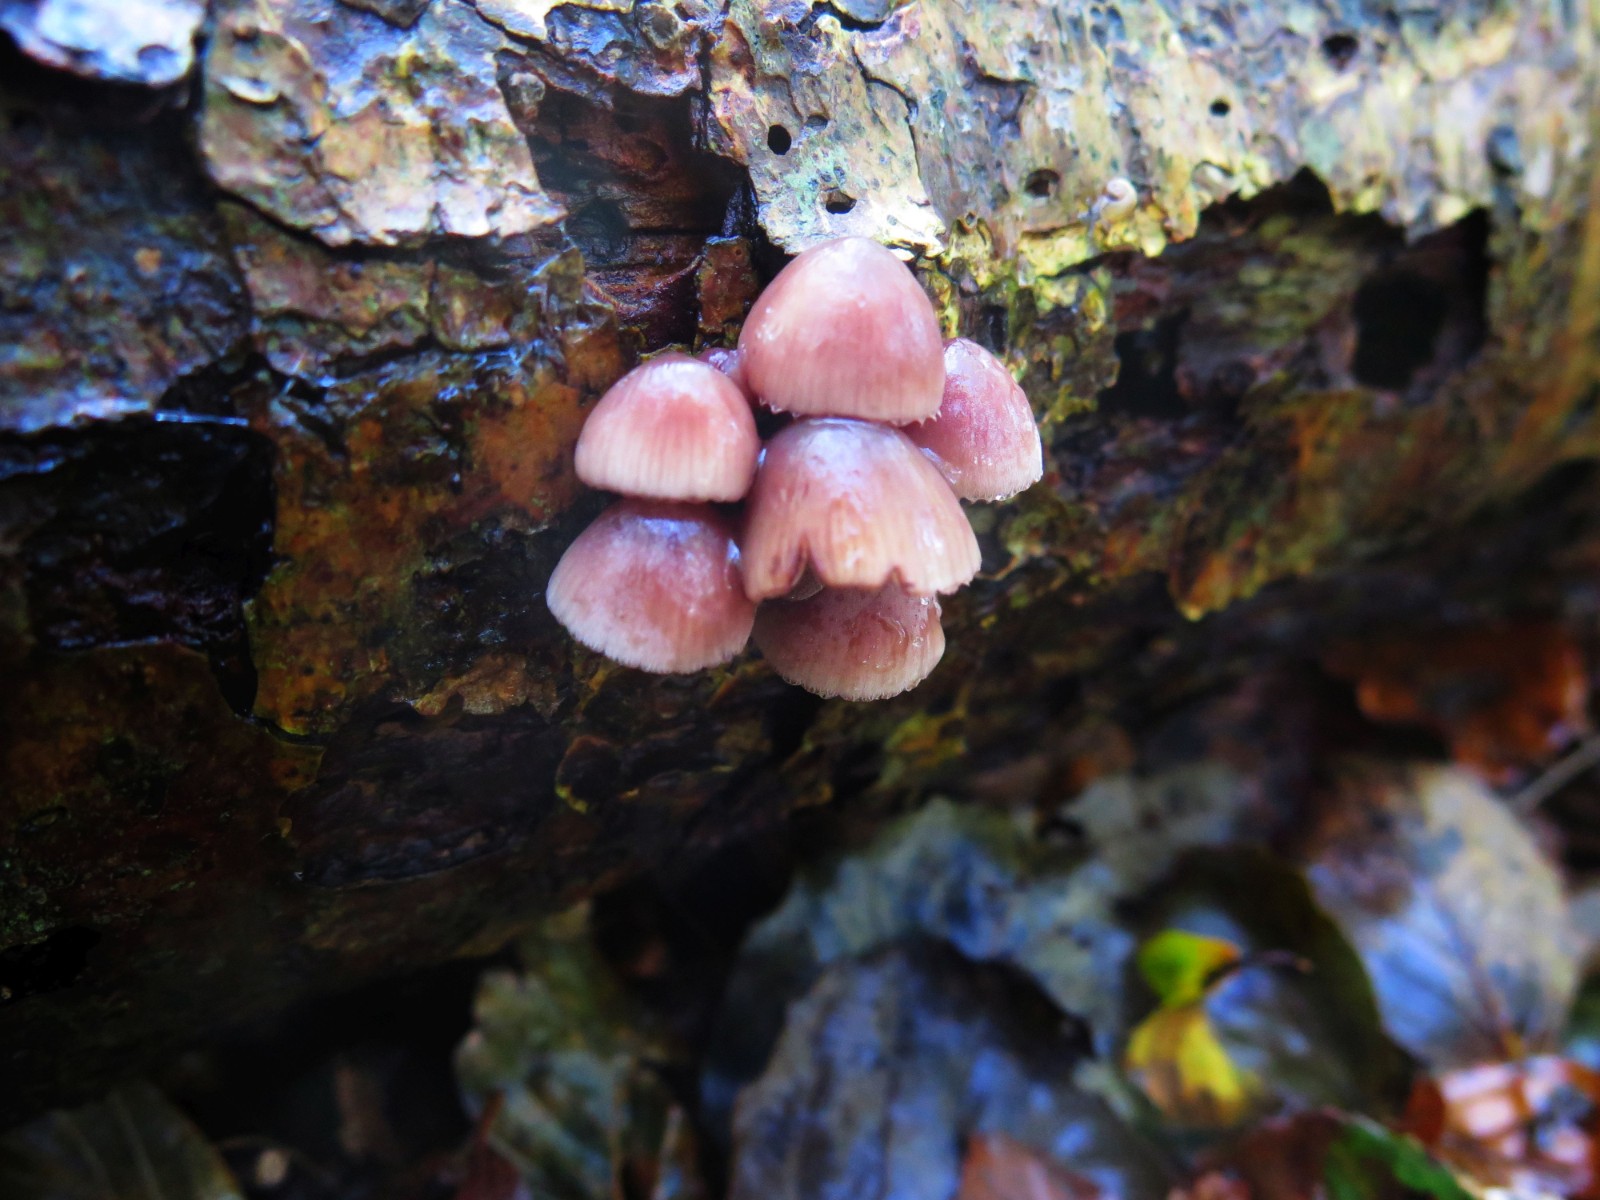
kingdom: Fungi
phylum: Basidiomycota
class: Agaricomycetes
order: Agaricales
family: Mycenaceae
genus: Mycena
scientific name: Mycena haematopus
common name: blødende huesvamp
